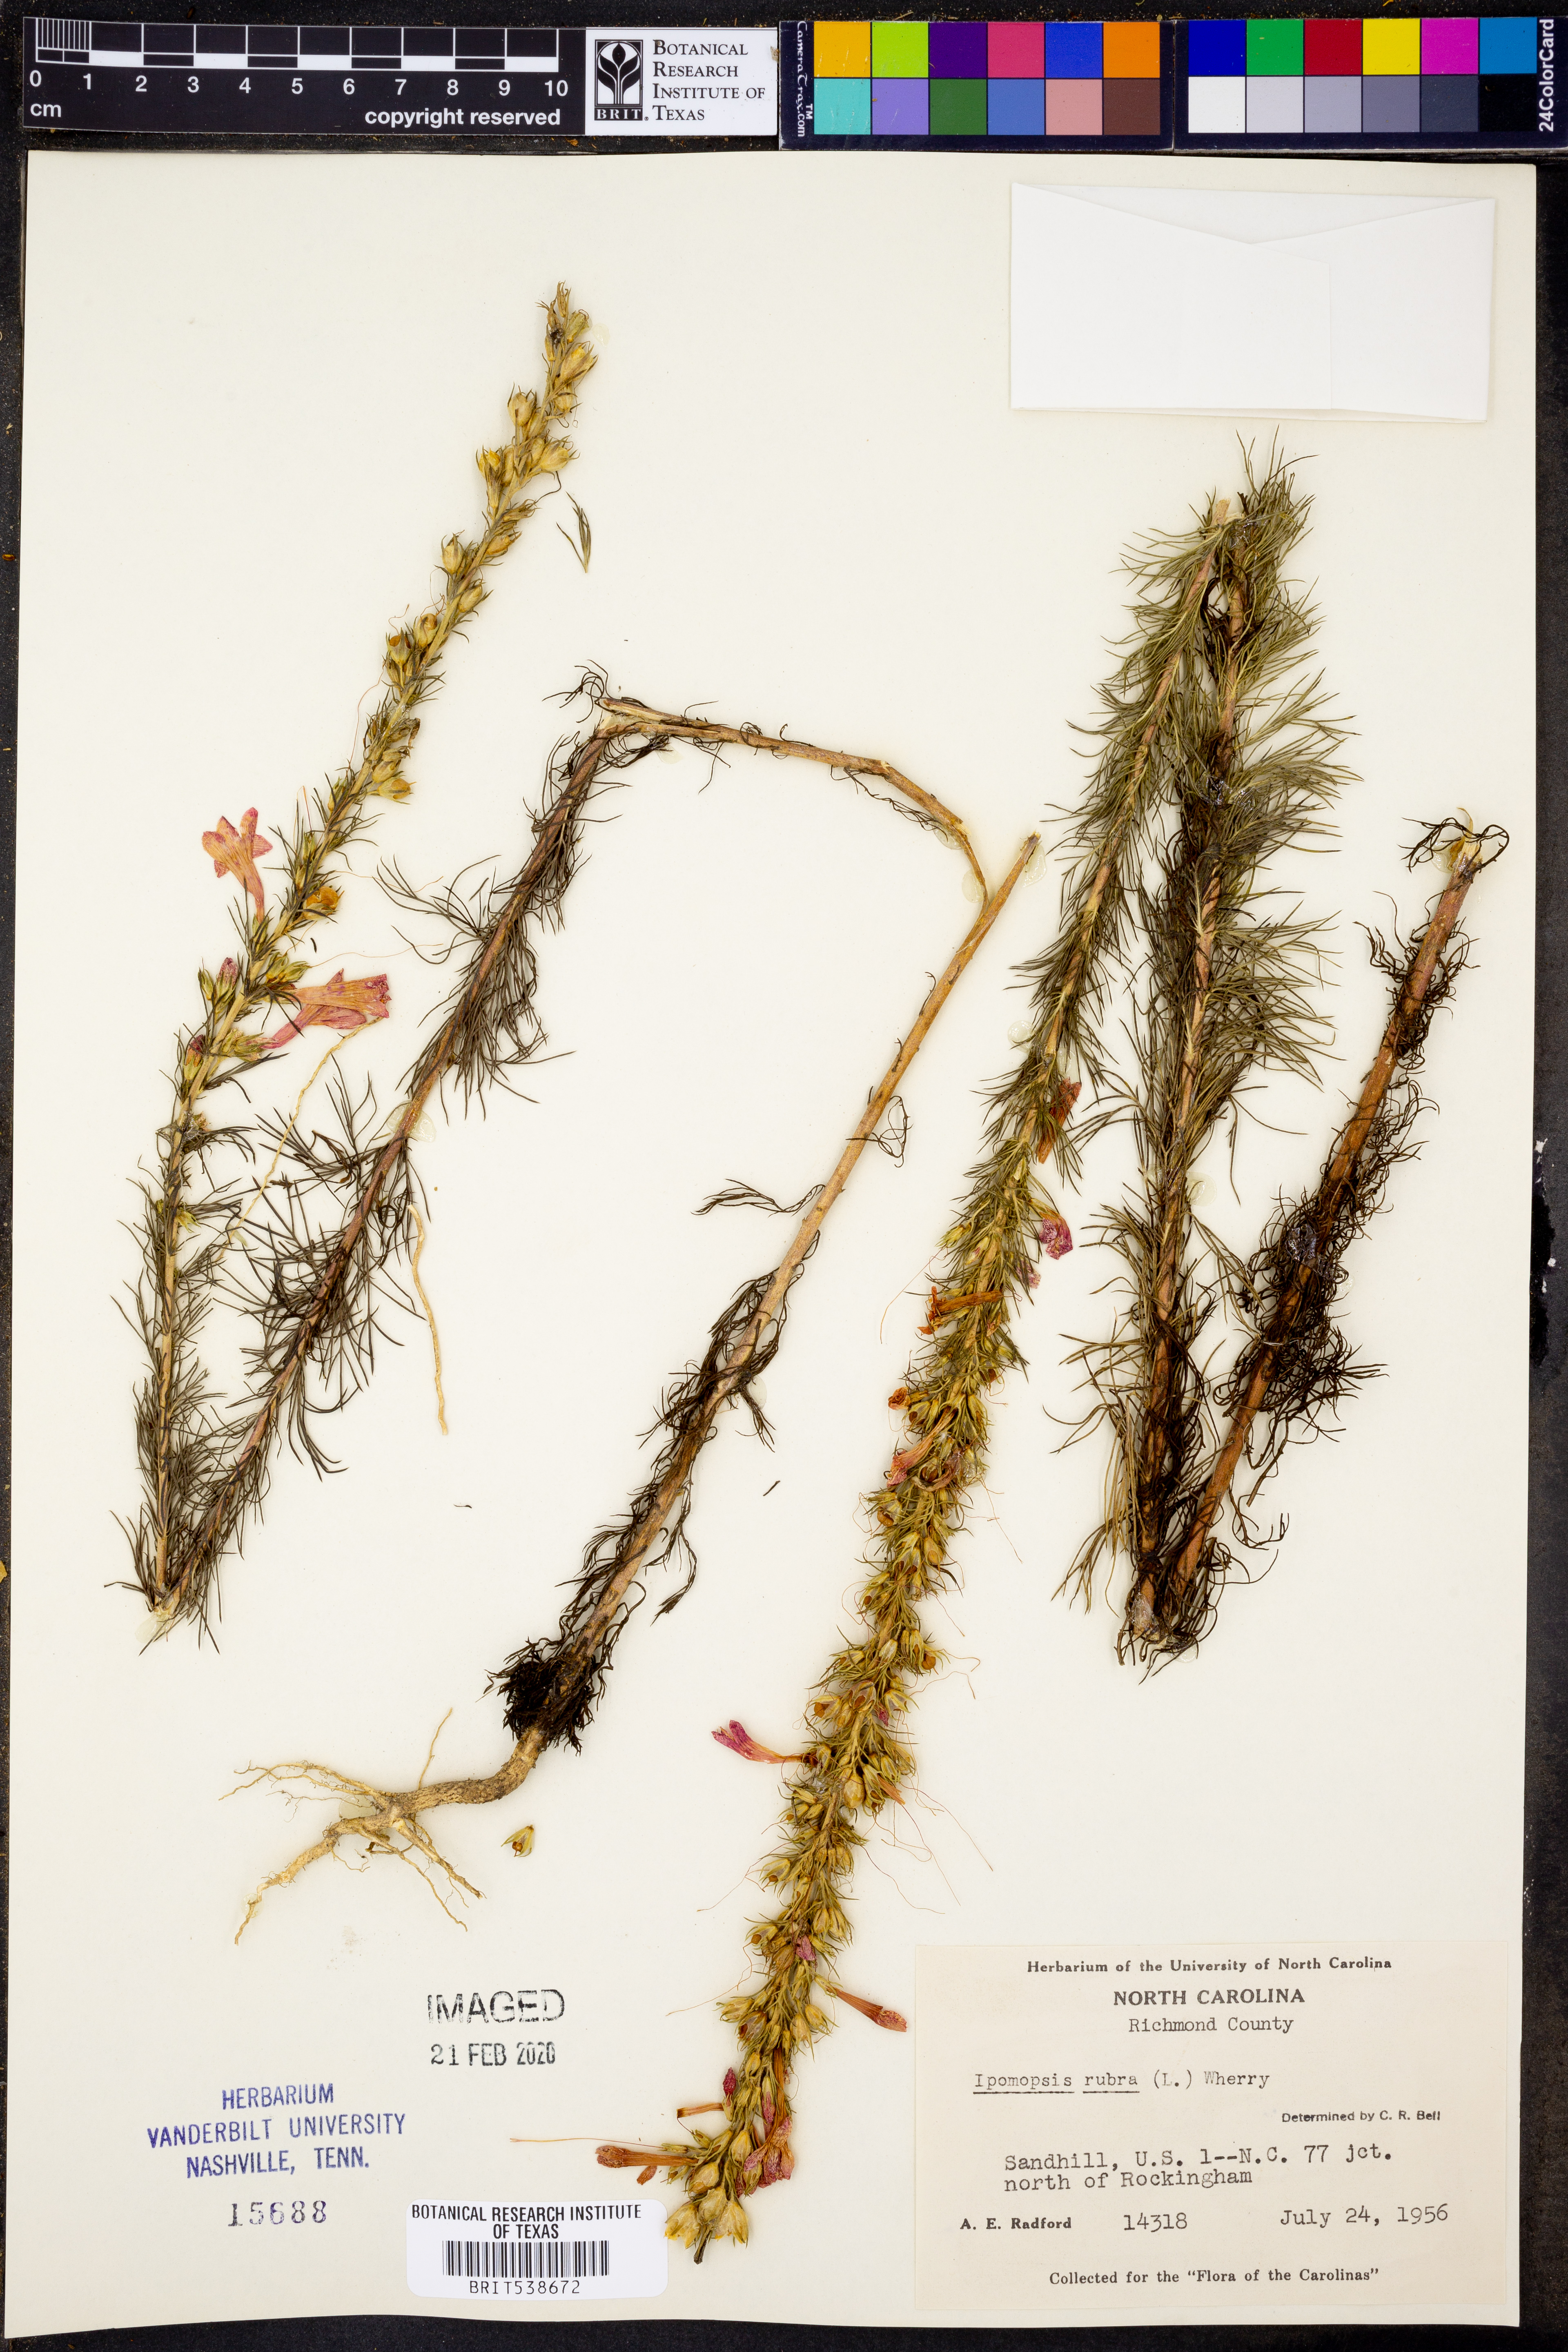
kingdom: Plantae
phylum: Tracheophyta
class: Magnoliopsida
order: Ericales
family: Polemoniaceae
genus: Ipomopsis
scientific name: Ipomopsis rubra
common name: Skyrocket
